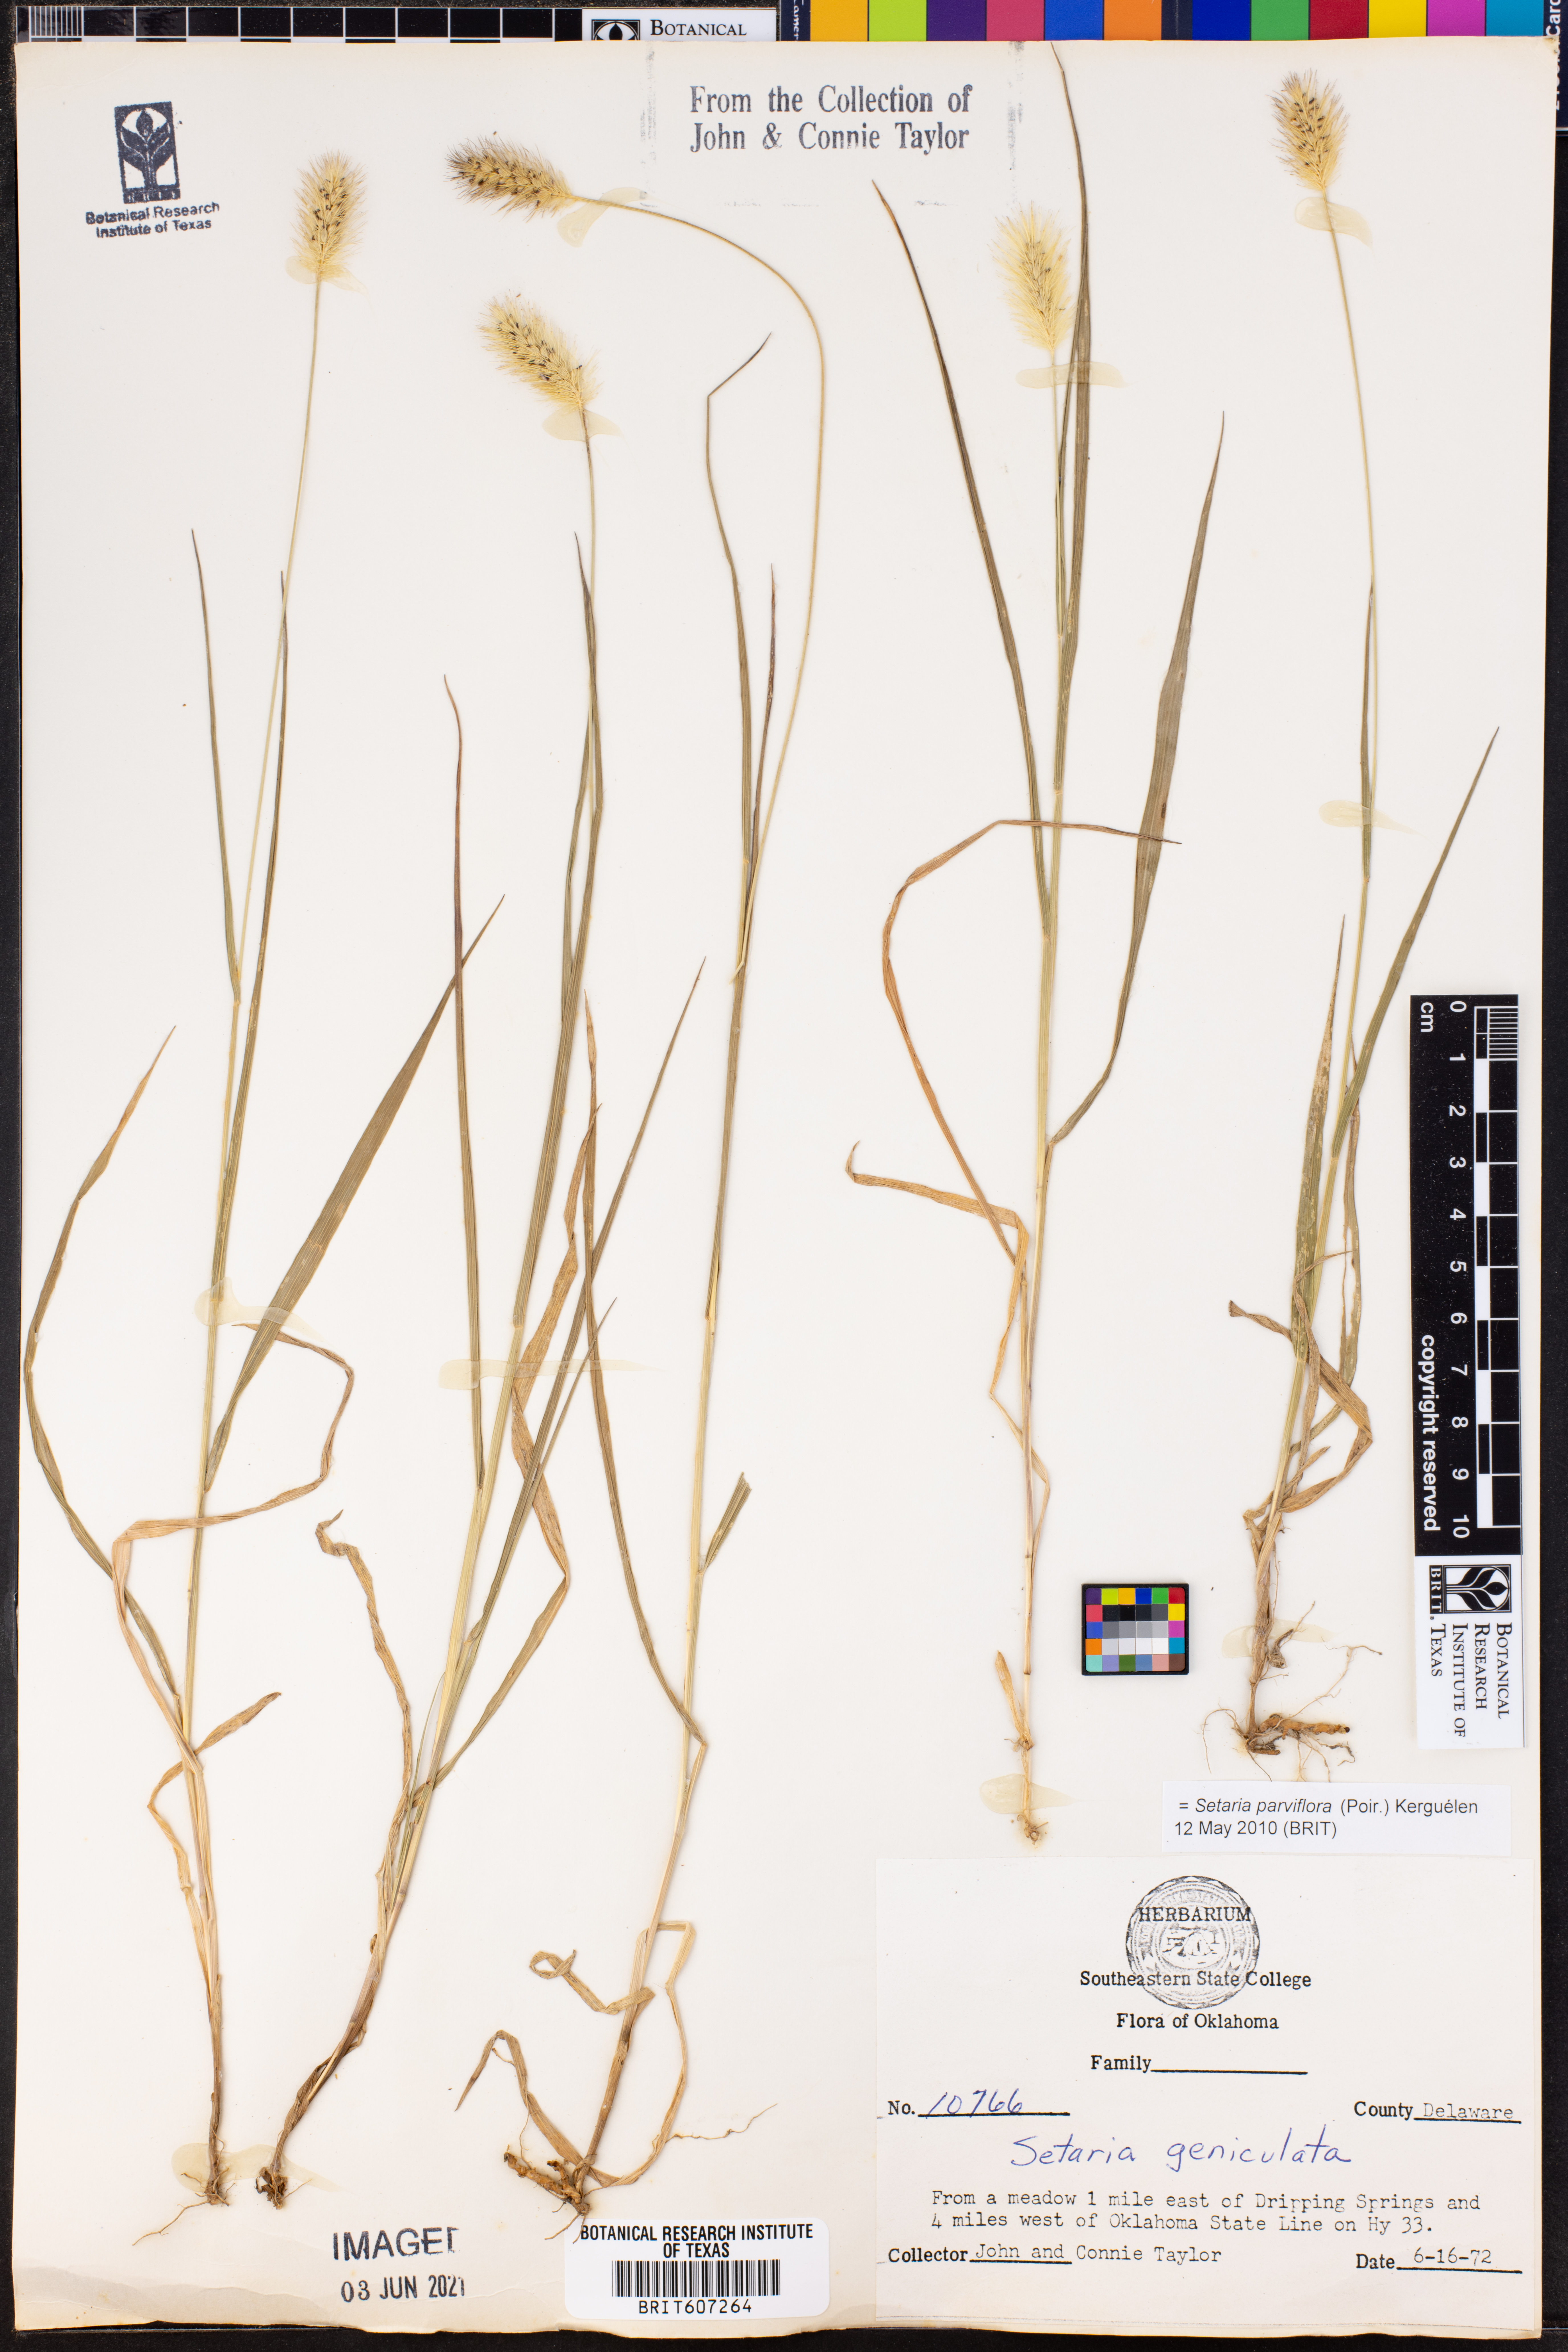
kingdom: Plantae
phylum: Tracheophyta
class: Liliopsida
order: Poales
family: Poaceae
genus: Setaria
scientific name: Setaria parviflora
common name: Knotroot bristle-grass
